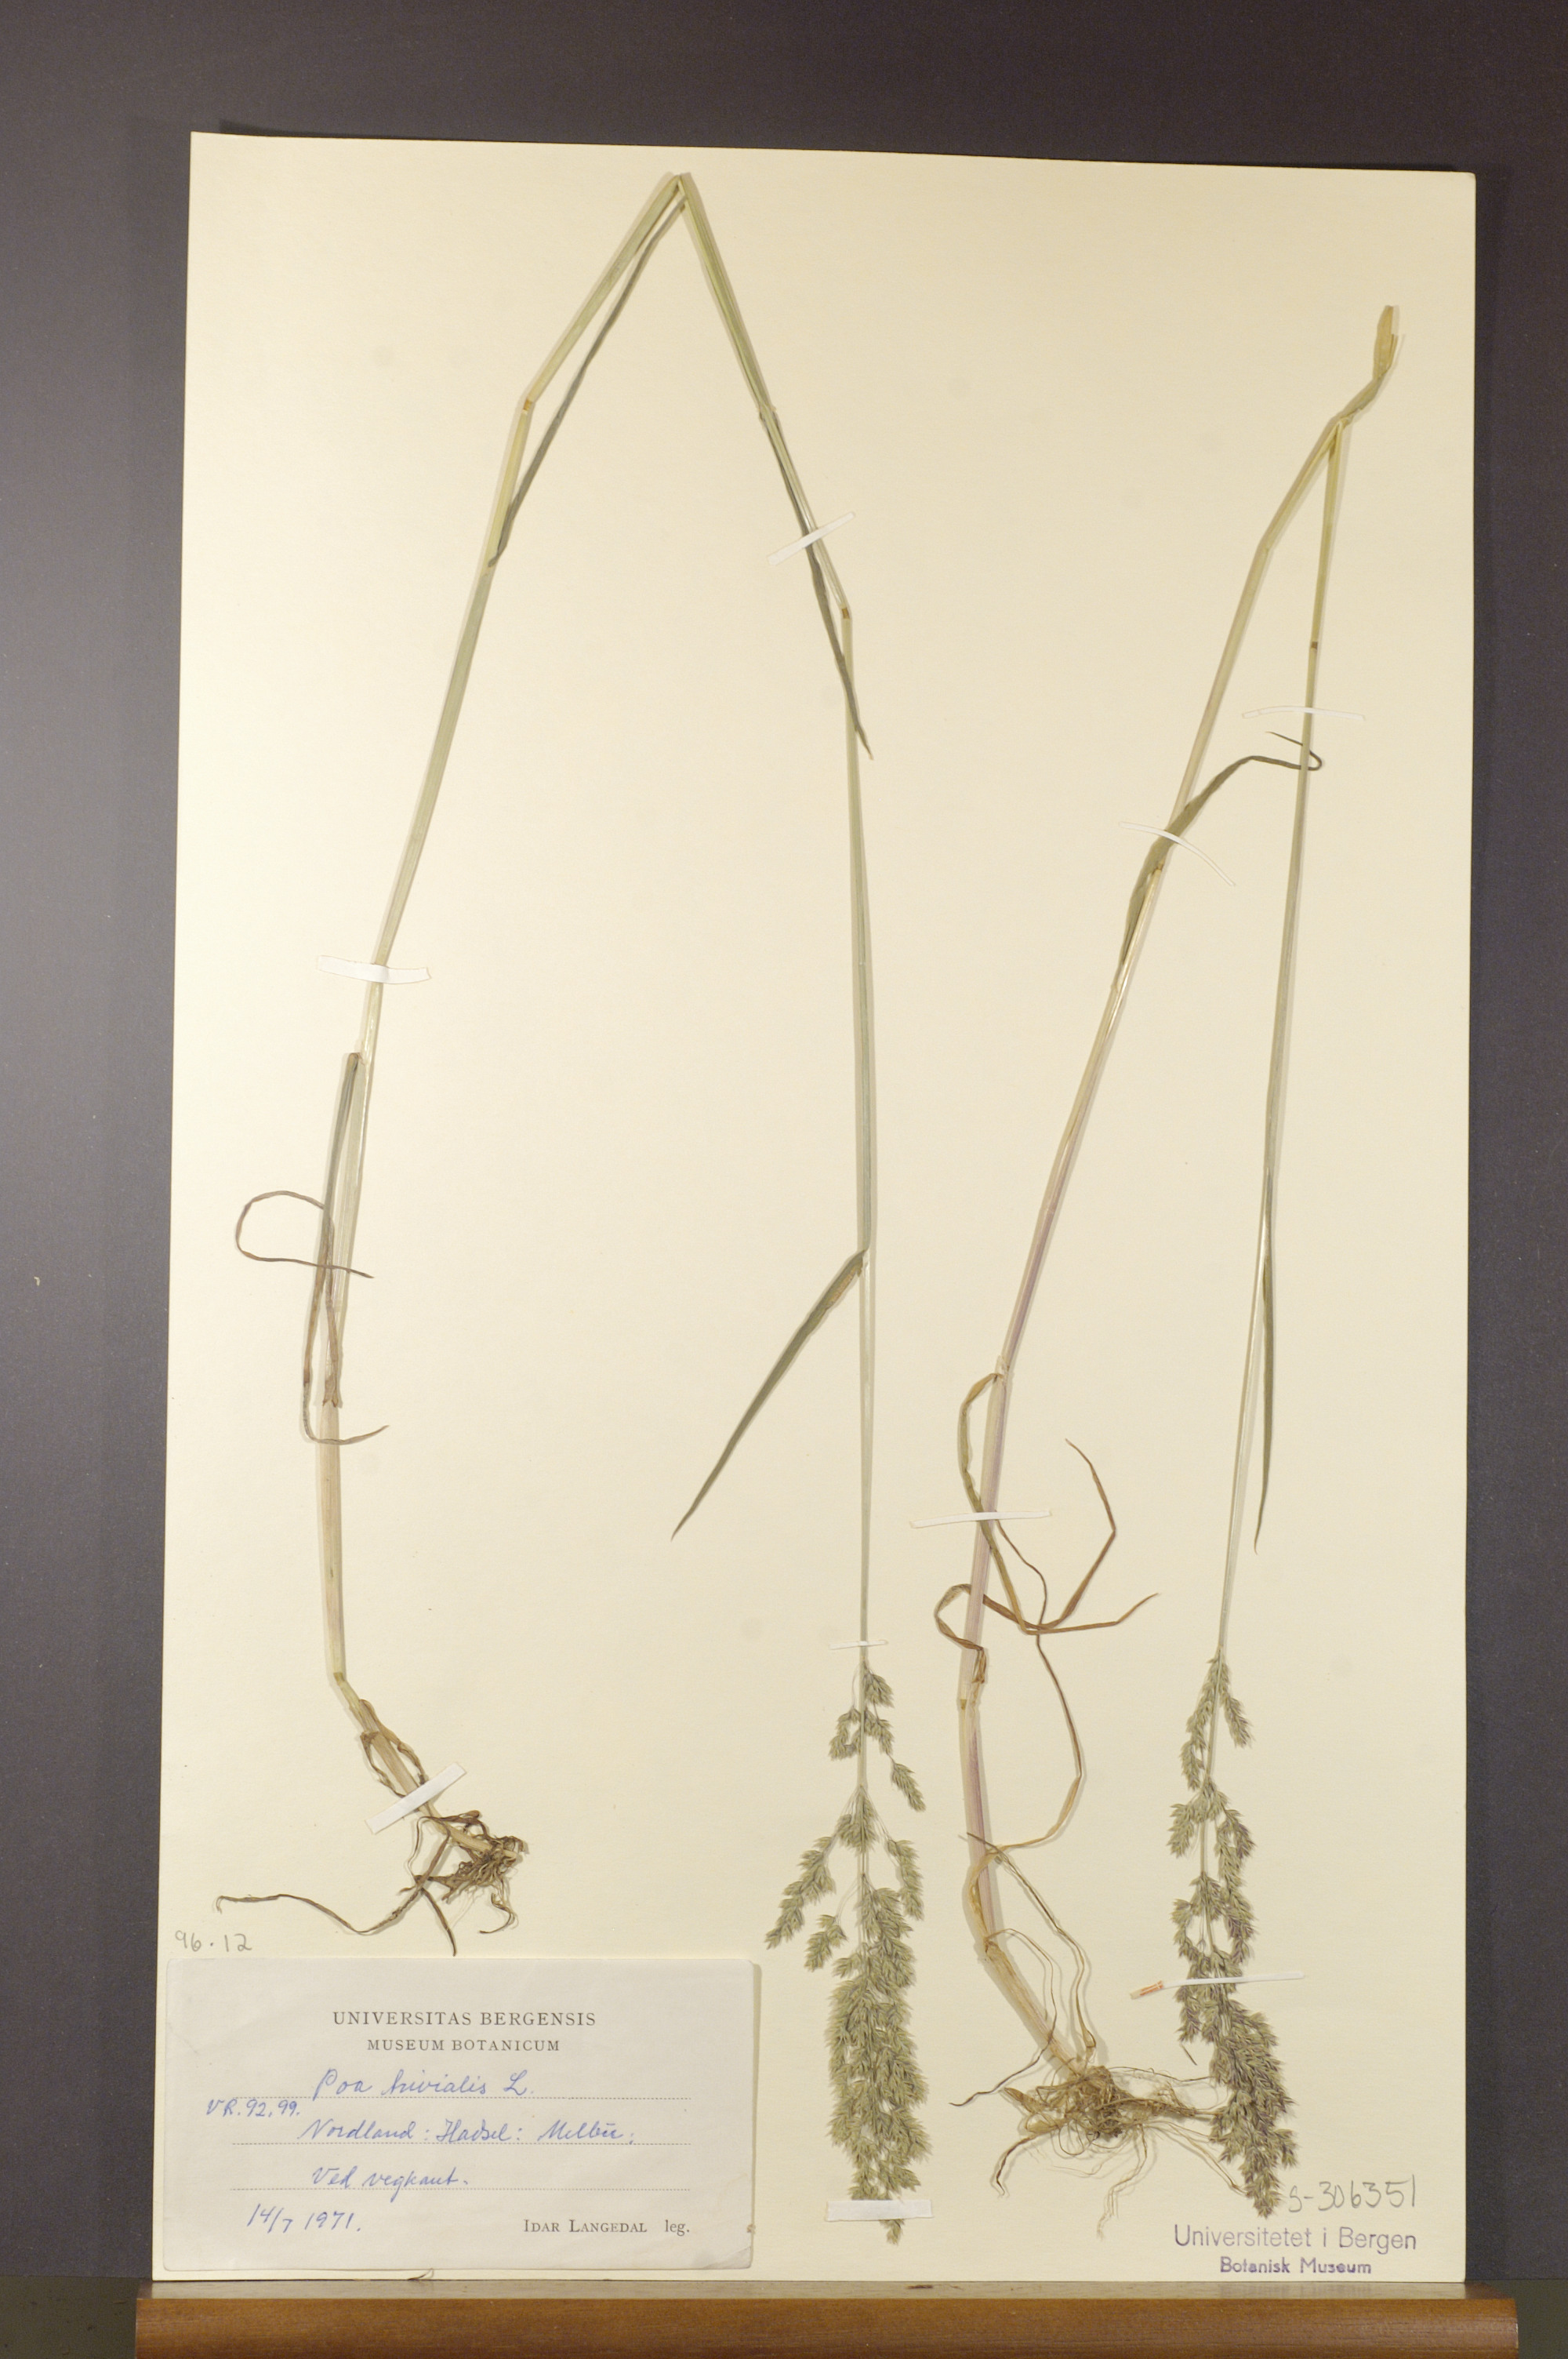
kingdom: Plantae
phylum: Tracheophyta
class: Liliopsida
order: Poales
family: Poaceae
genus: Poa
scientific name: Poa trivialis
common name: Rough bluegrass
